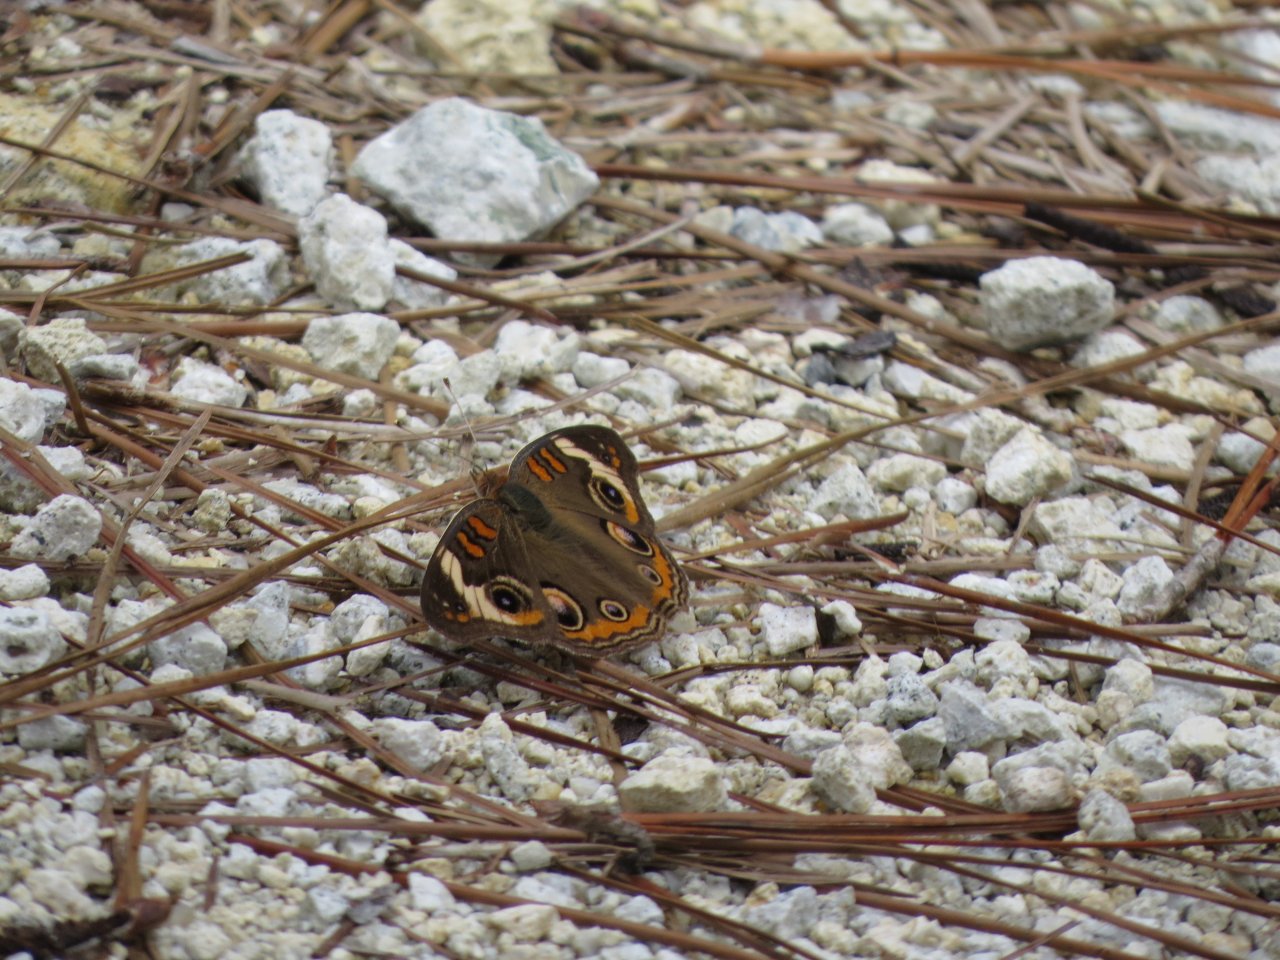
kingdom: Animalia
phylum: Arthropoda
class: Insecta
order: Lepidoptera
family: Nymphalidae
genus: Junonia
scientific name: Junonia coenia
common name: Common Buckeye
